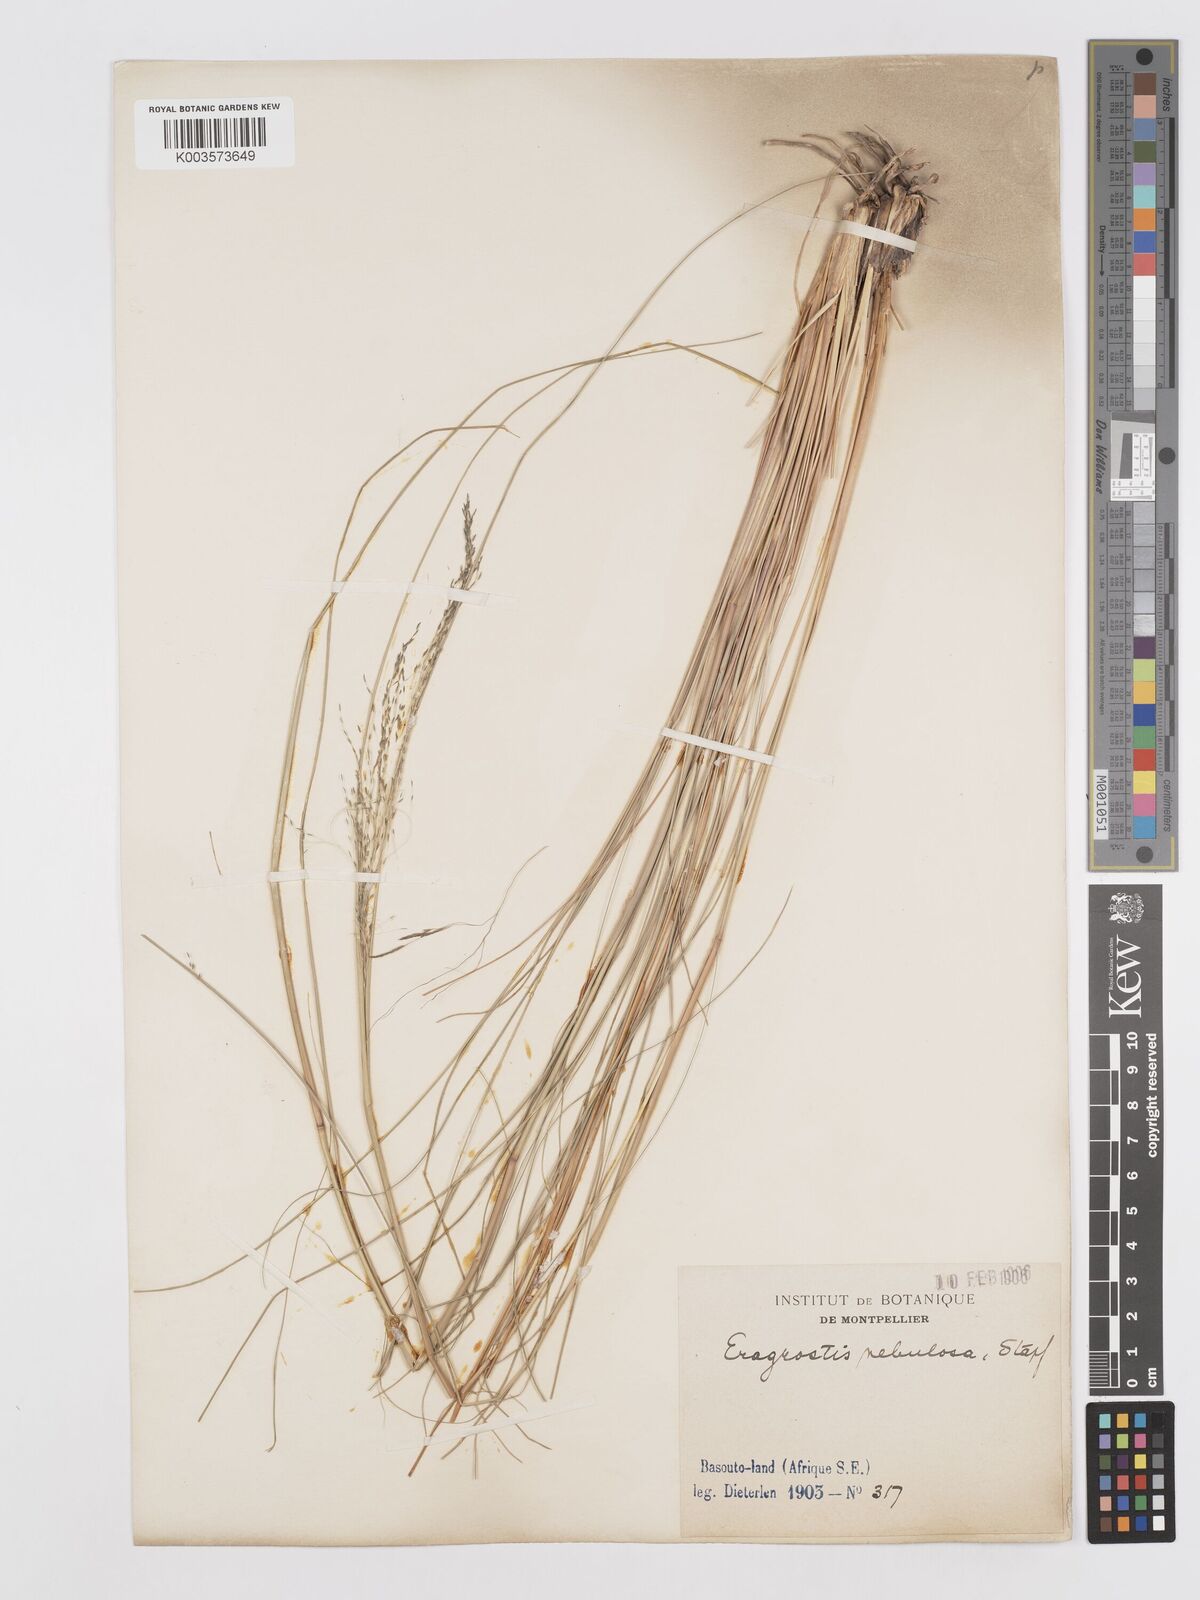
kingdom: Plantae
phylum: Tracheophyta
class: Liliopsida
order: Poales
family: Poaceae
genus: Eragrostis
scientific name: Eragrostis planiculmis
